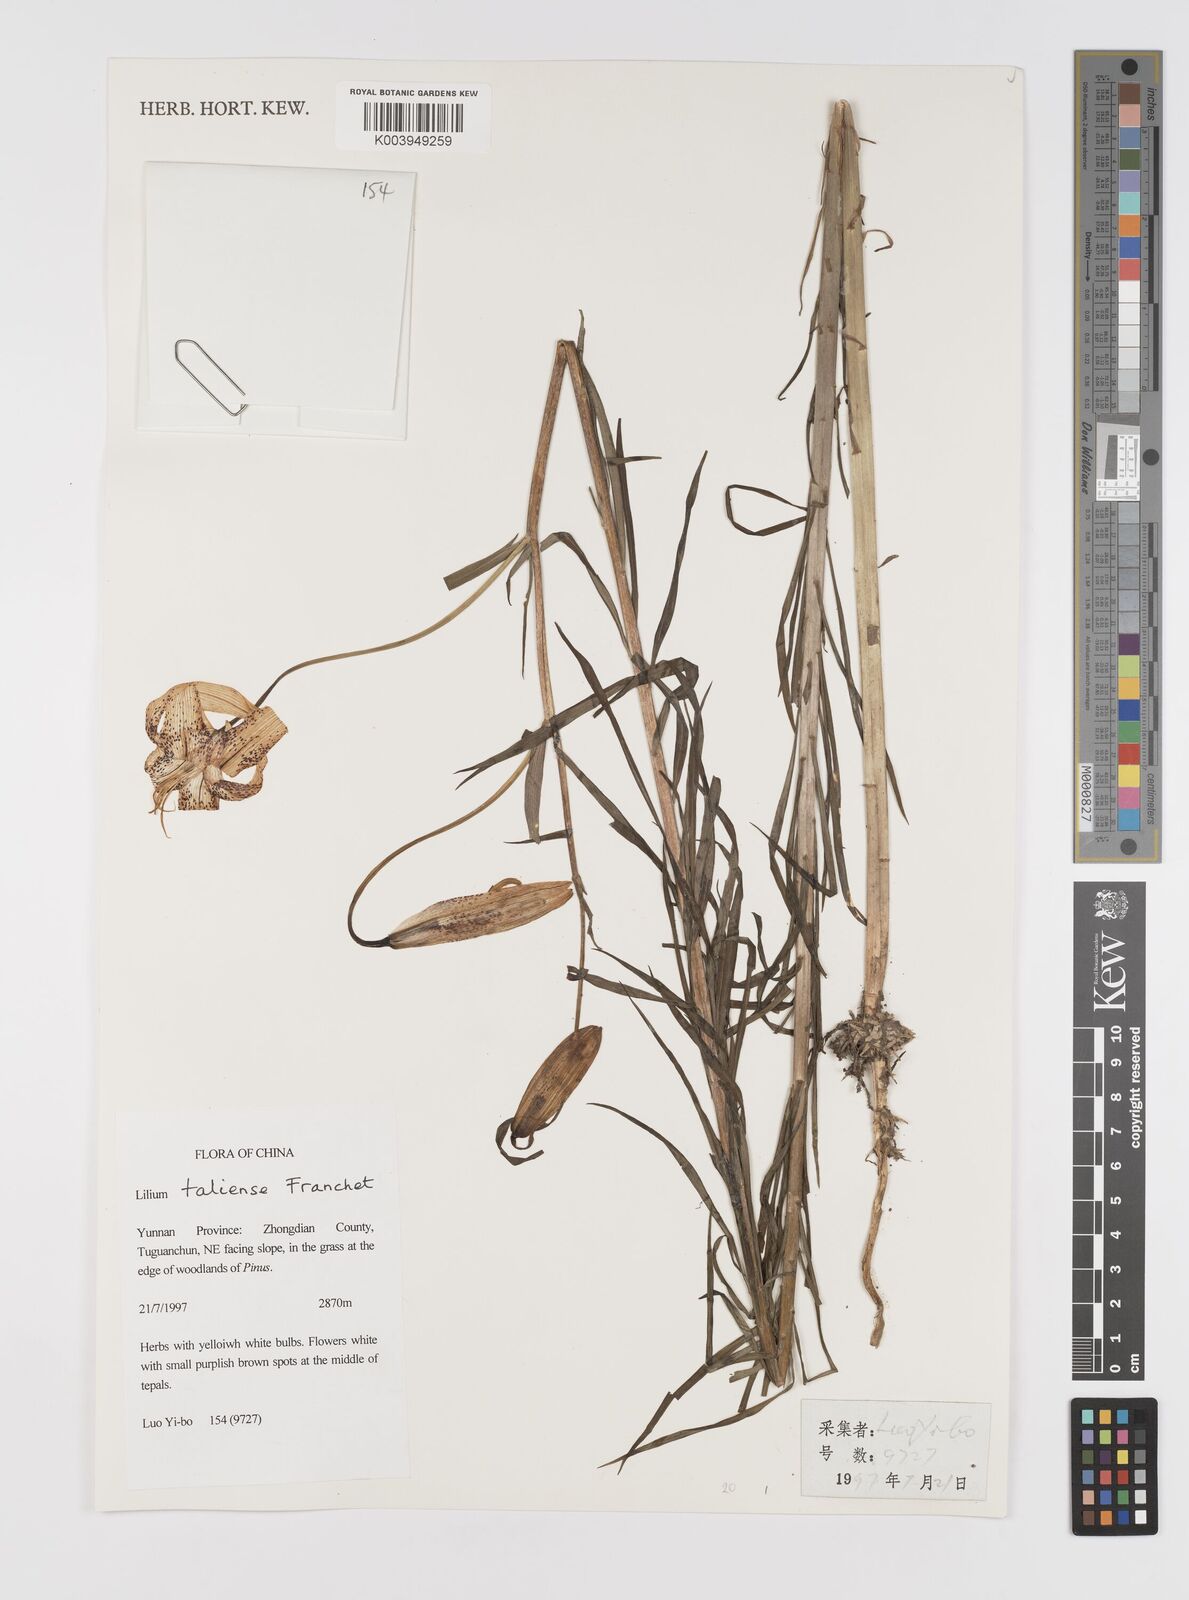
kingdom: Plantae
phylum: Tracheophyta
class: Liliopsida
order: Liliales
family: Liliaceae
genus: Lilium
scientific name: Lilium taliense
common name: Tali lily
